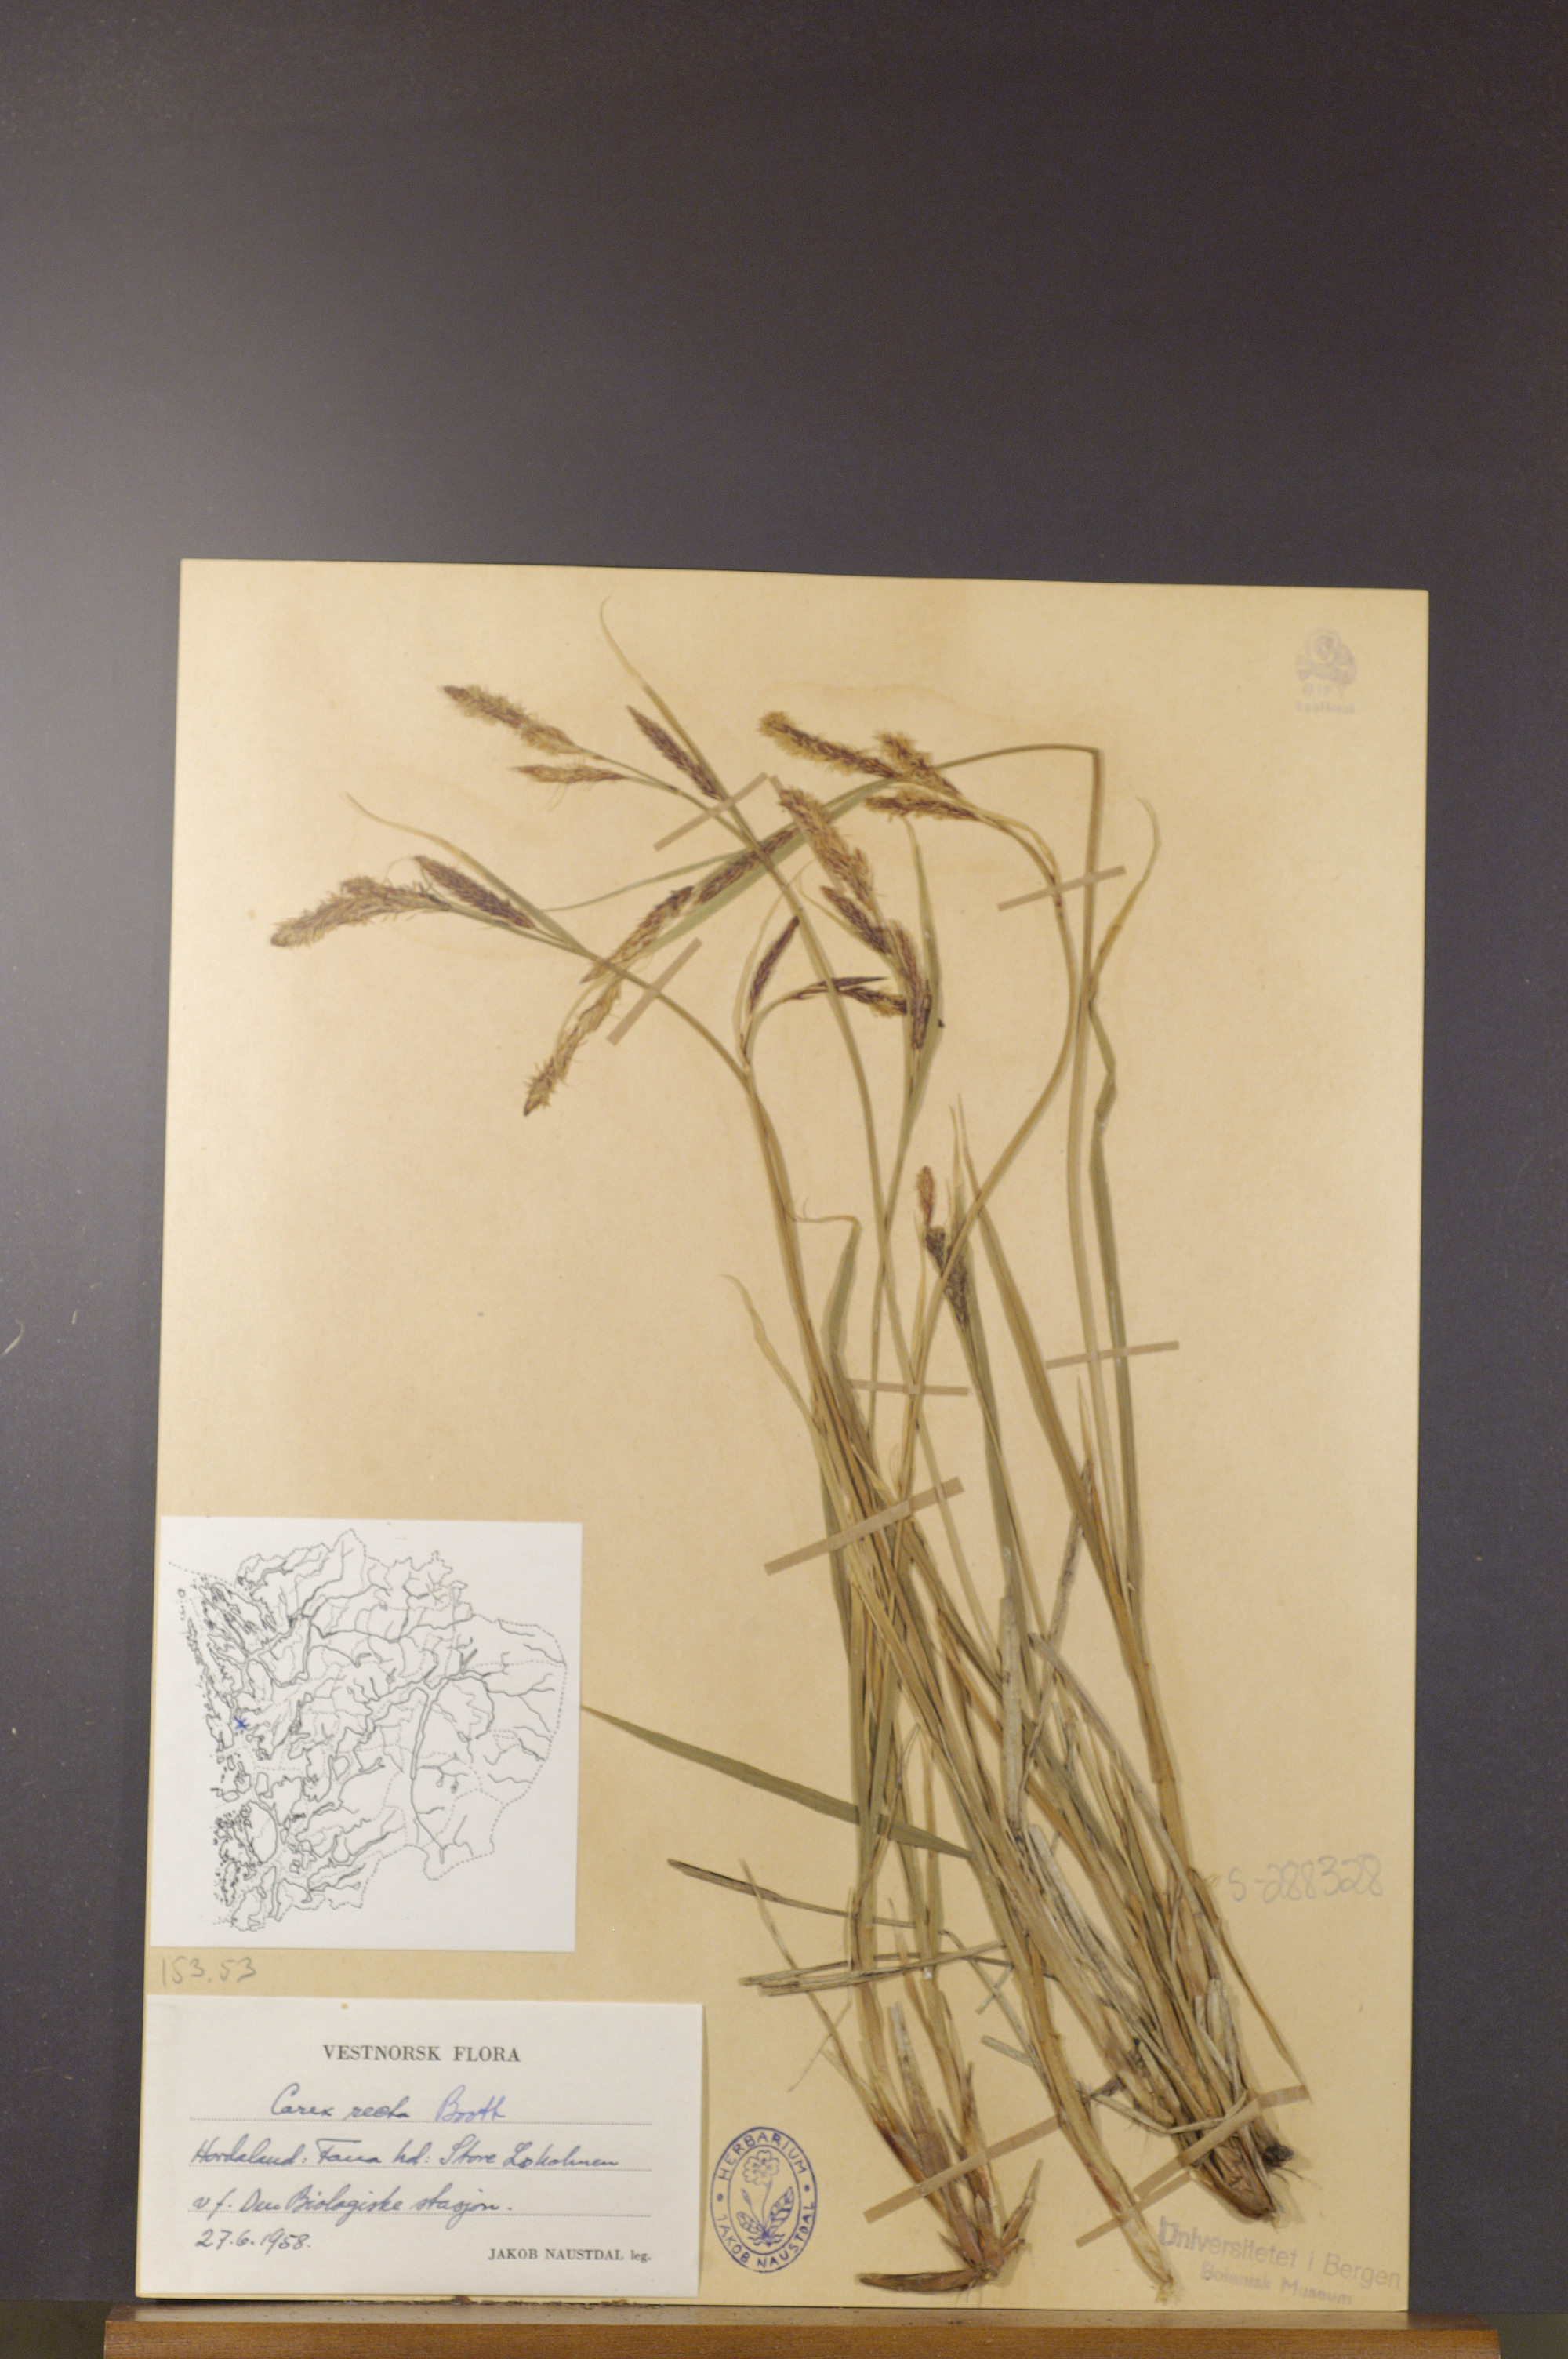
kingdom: Plantae
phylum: Tracheophyta
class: Liliopsida
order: Poales
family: Cyperaceae
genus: Carex
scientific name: Carex recta
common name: Estuarine sedge
